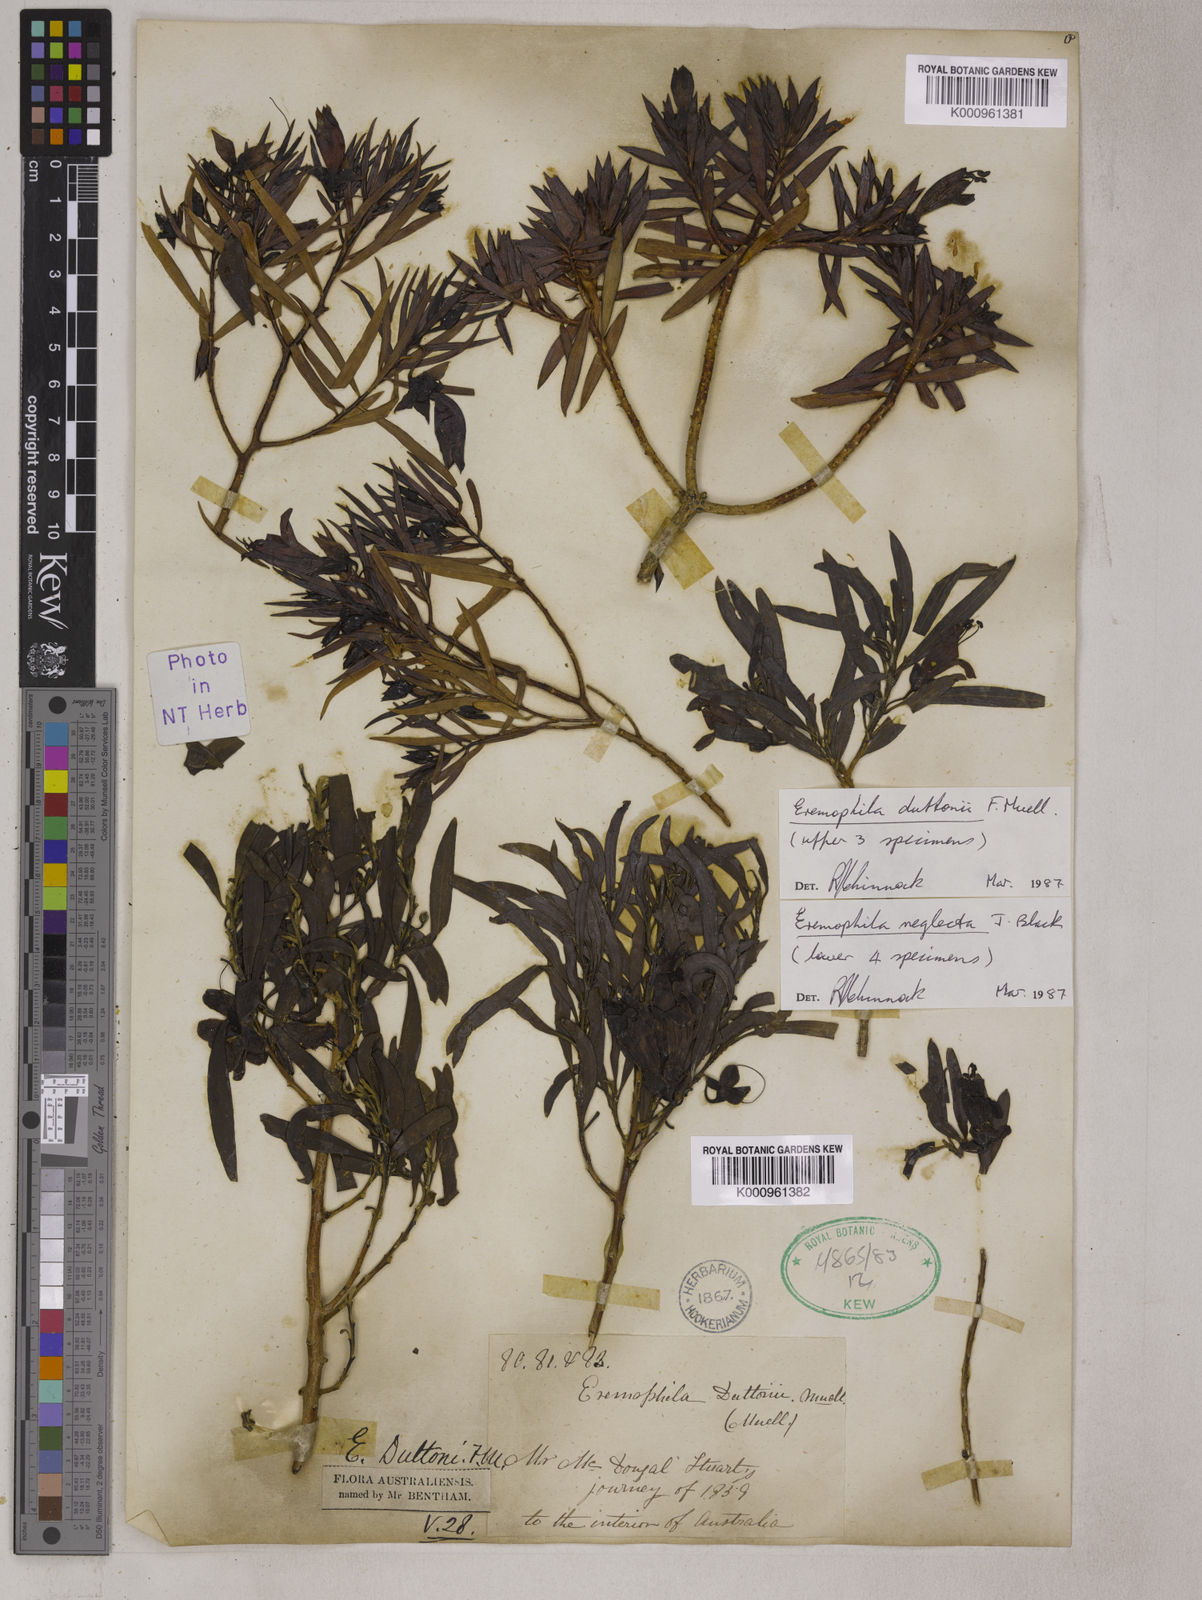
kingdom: Plantae
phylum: Tracheophyta
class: Magnoliopsida
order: Lamiales
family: Scrophulariaceae
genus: Eremophila
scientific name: Eremophila duttonii
